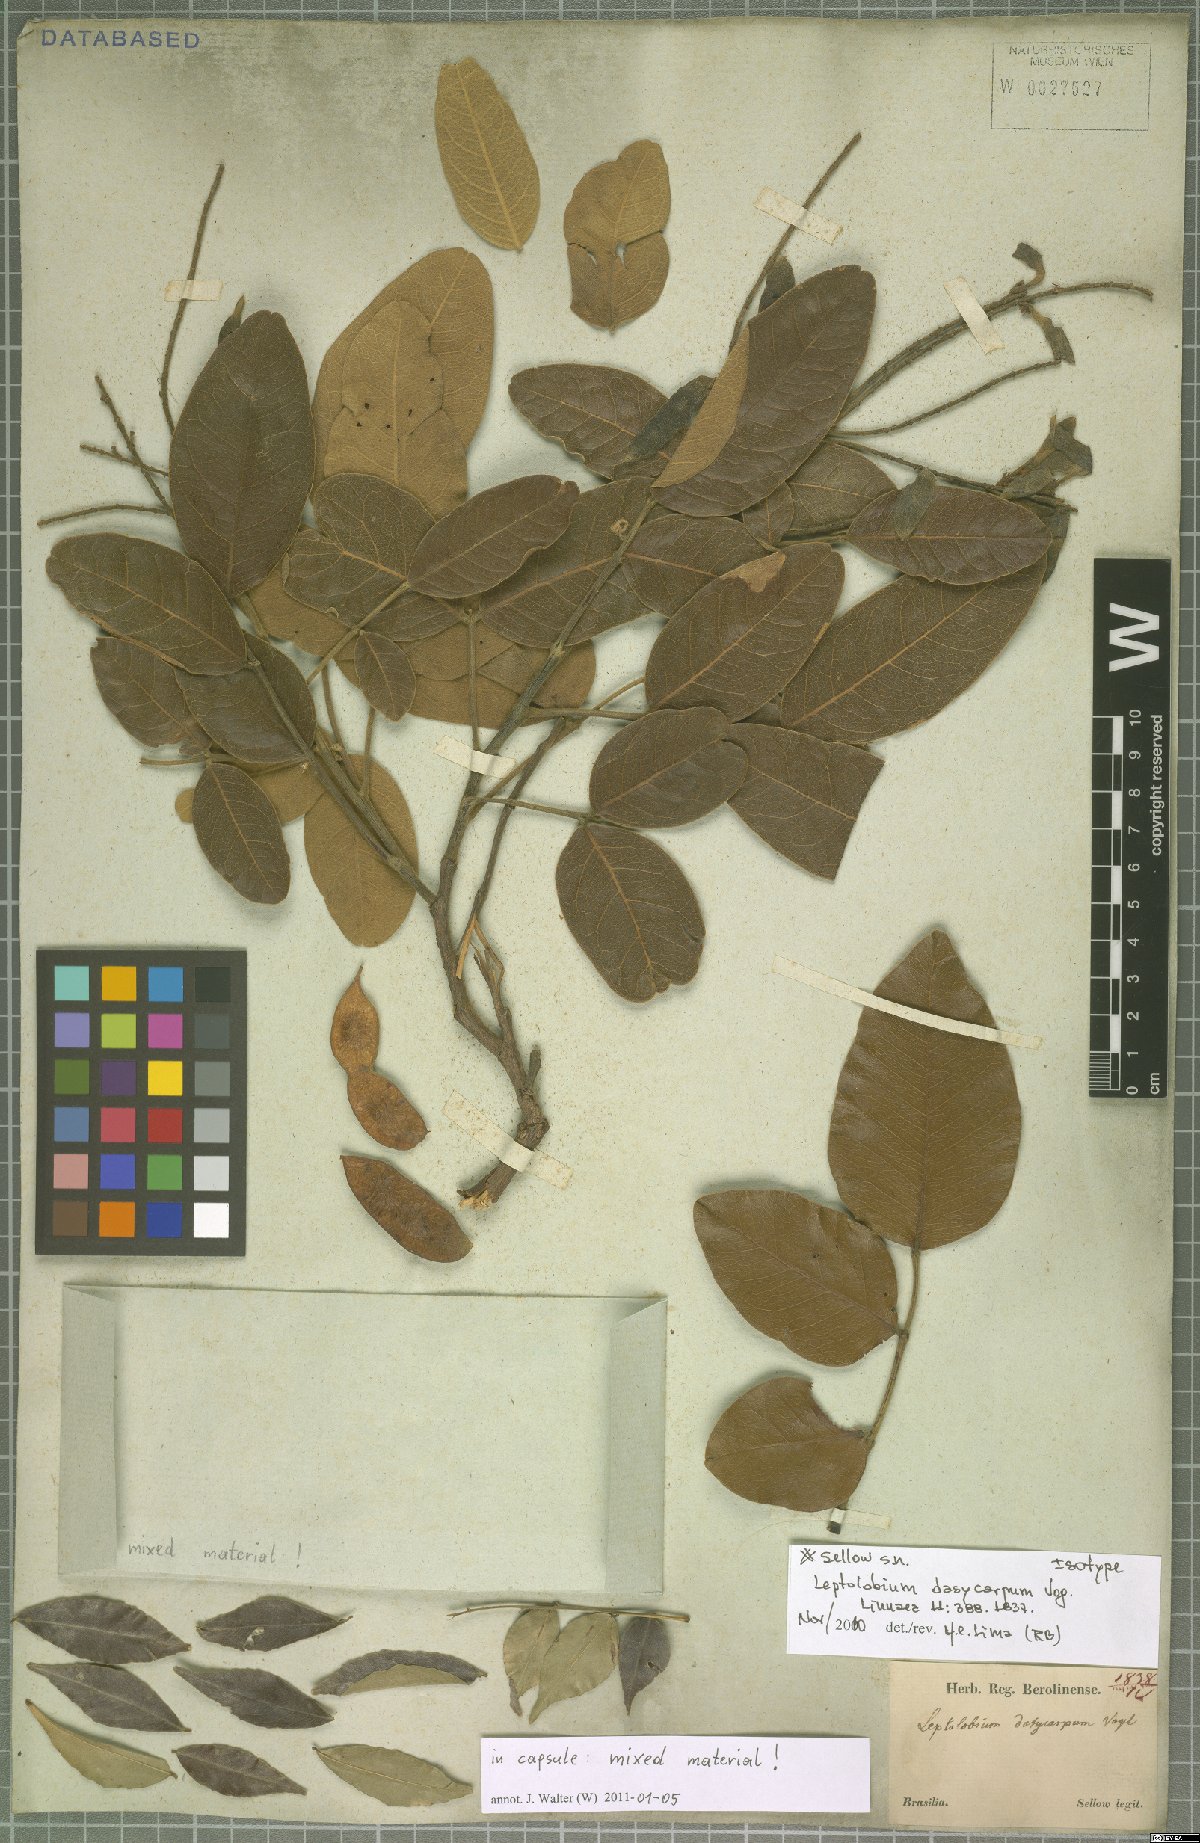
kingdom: Plantae
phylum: Tracheophyta
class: Magnoliopsida
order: Fabales
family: Fabaceae
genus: Leptolobium
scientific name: Leptolobium dasycarpum
